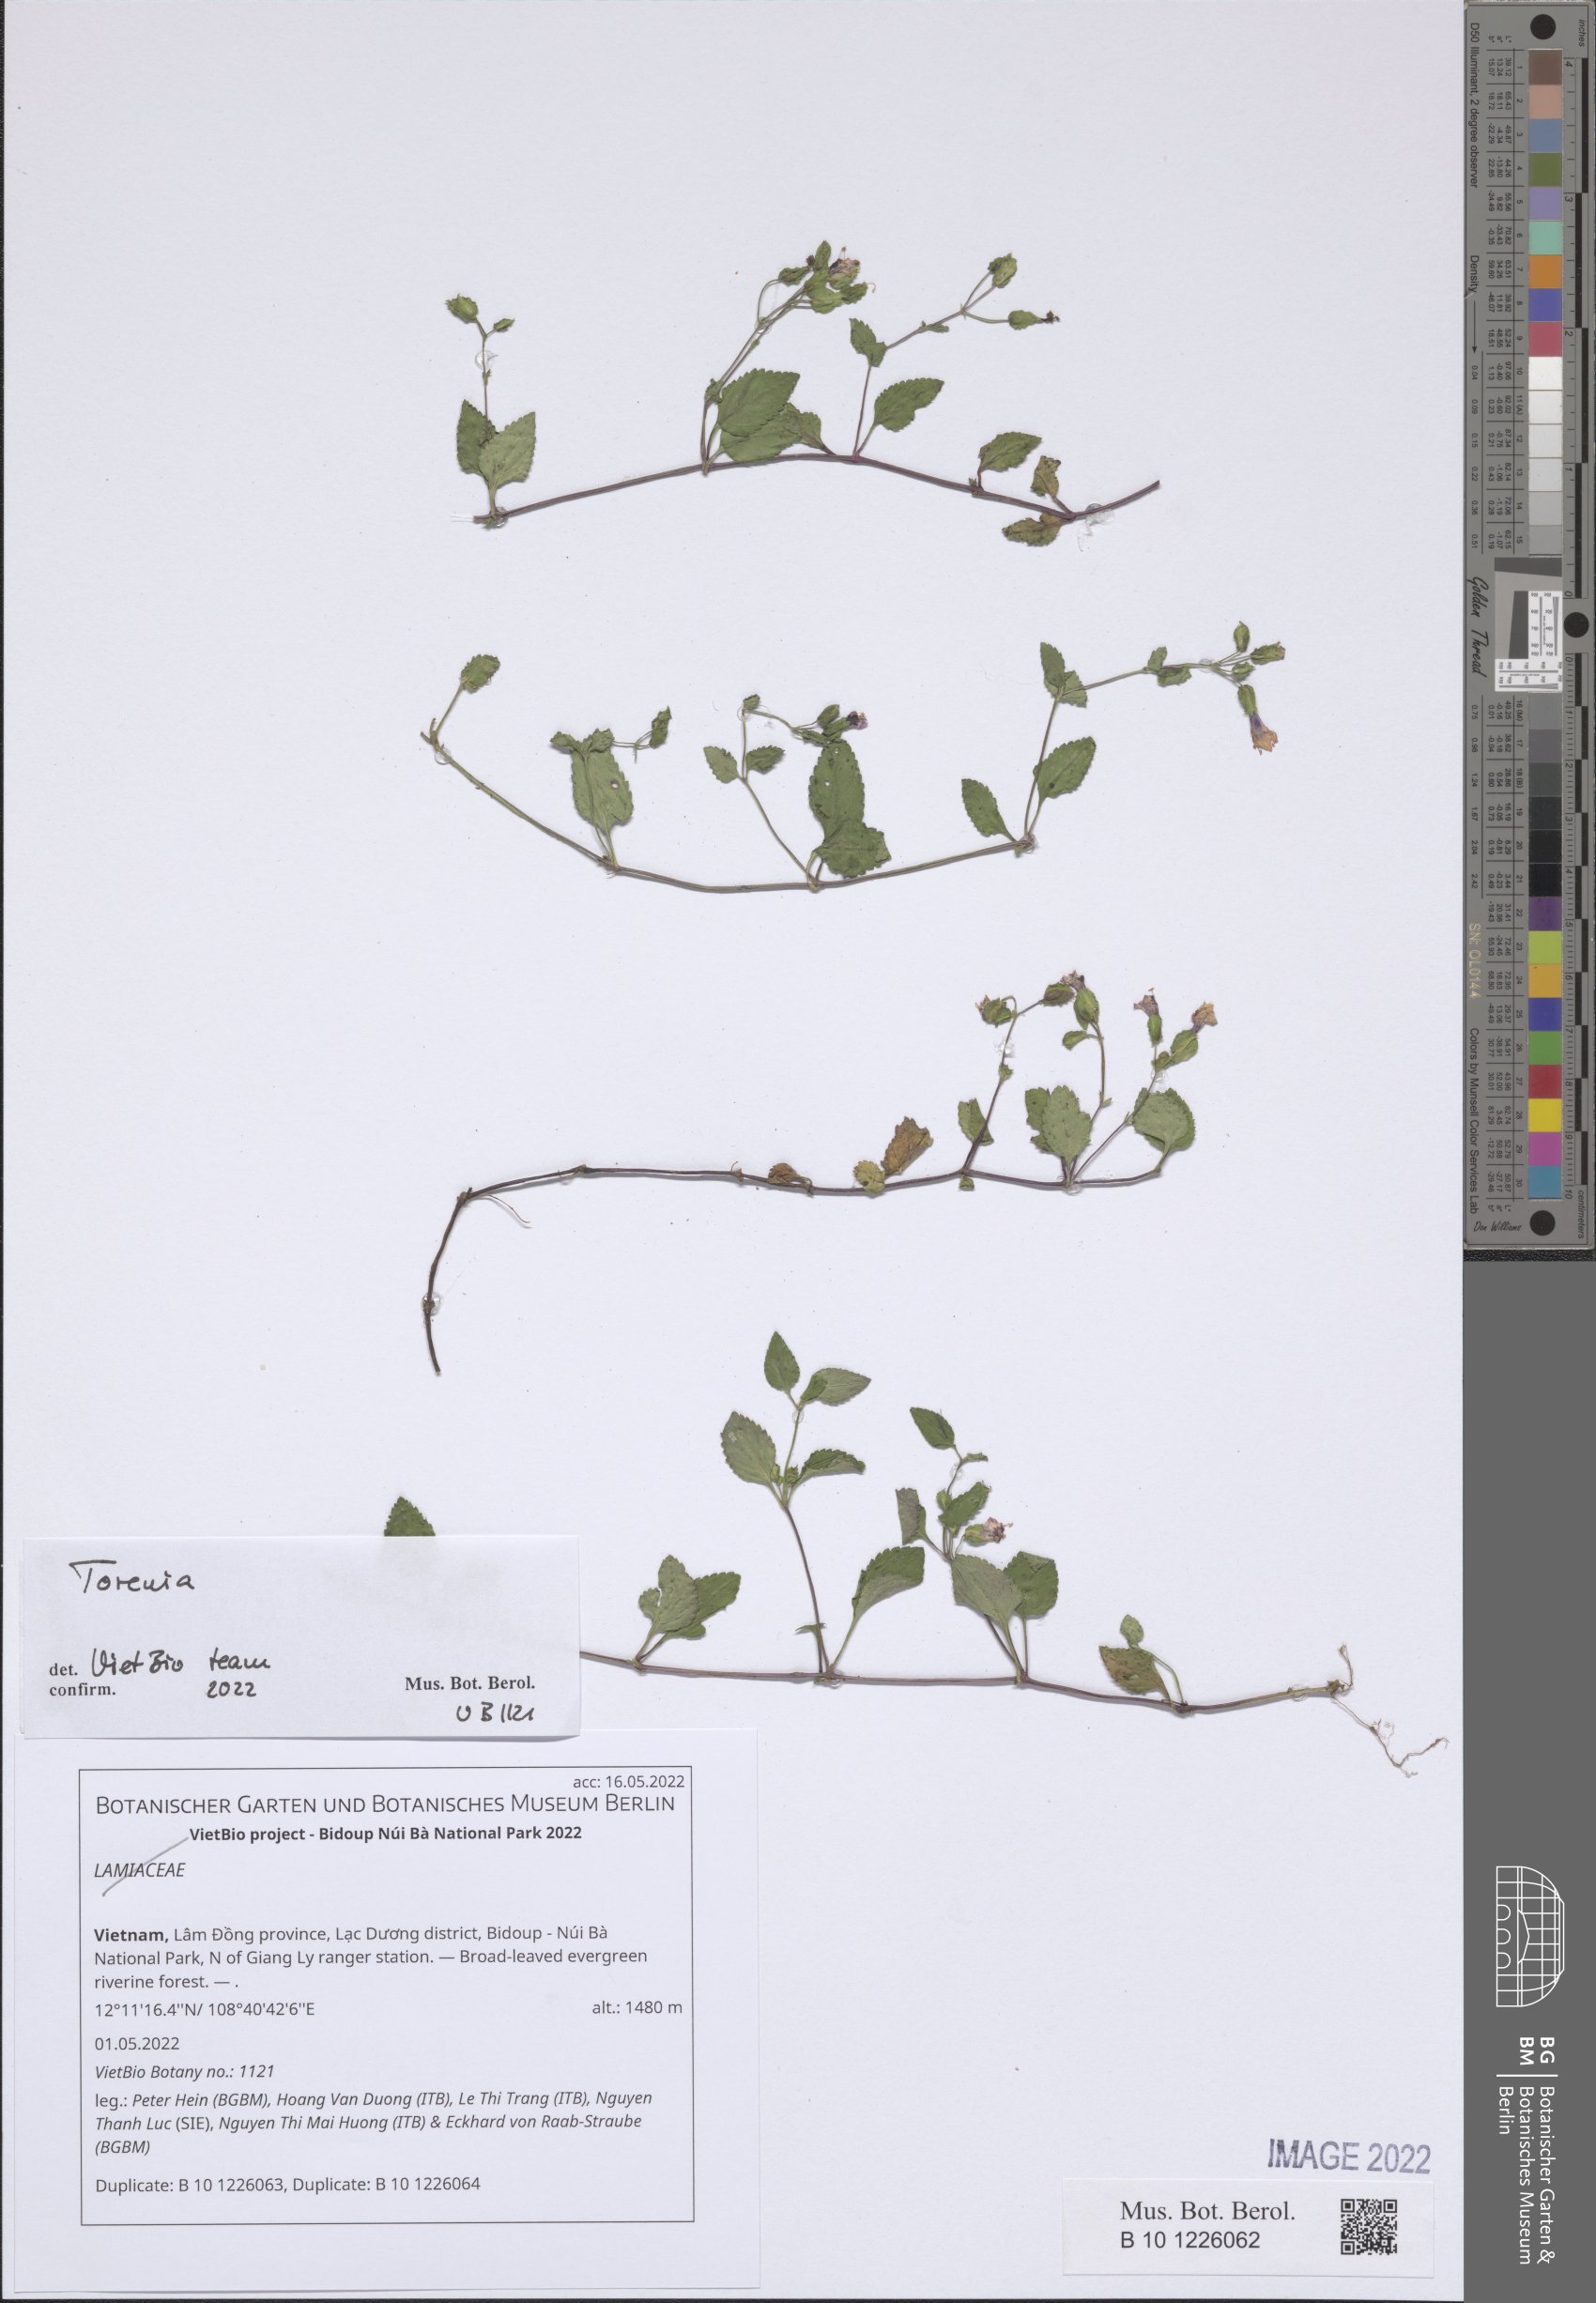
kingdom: Plantae
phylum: Tracheophyta
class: Magnoliopsida
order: Lamiales
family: Lamiaceae
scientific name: Lamiaceae
